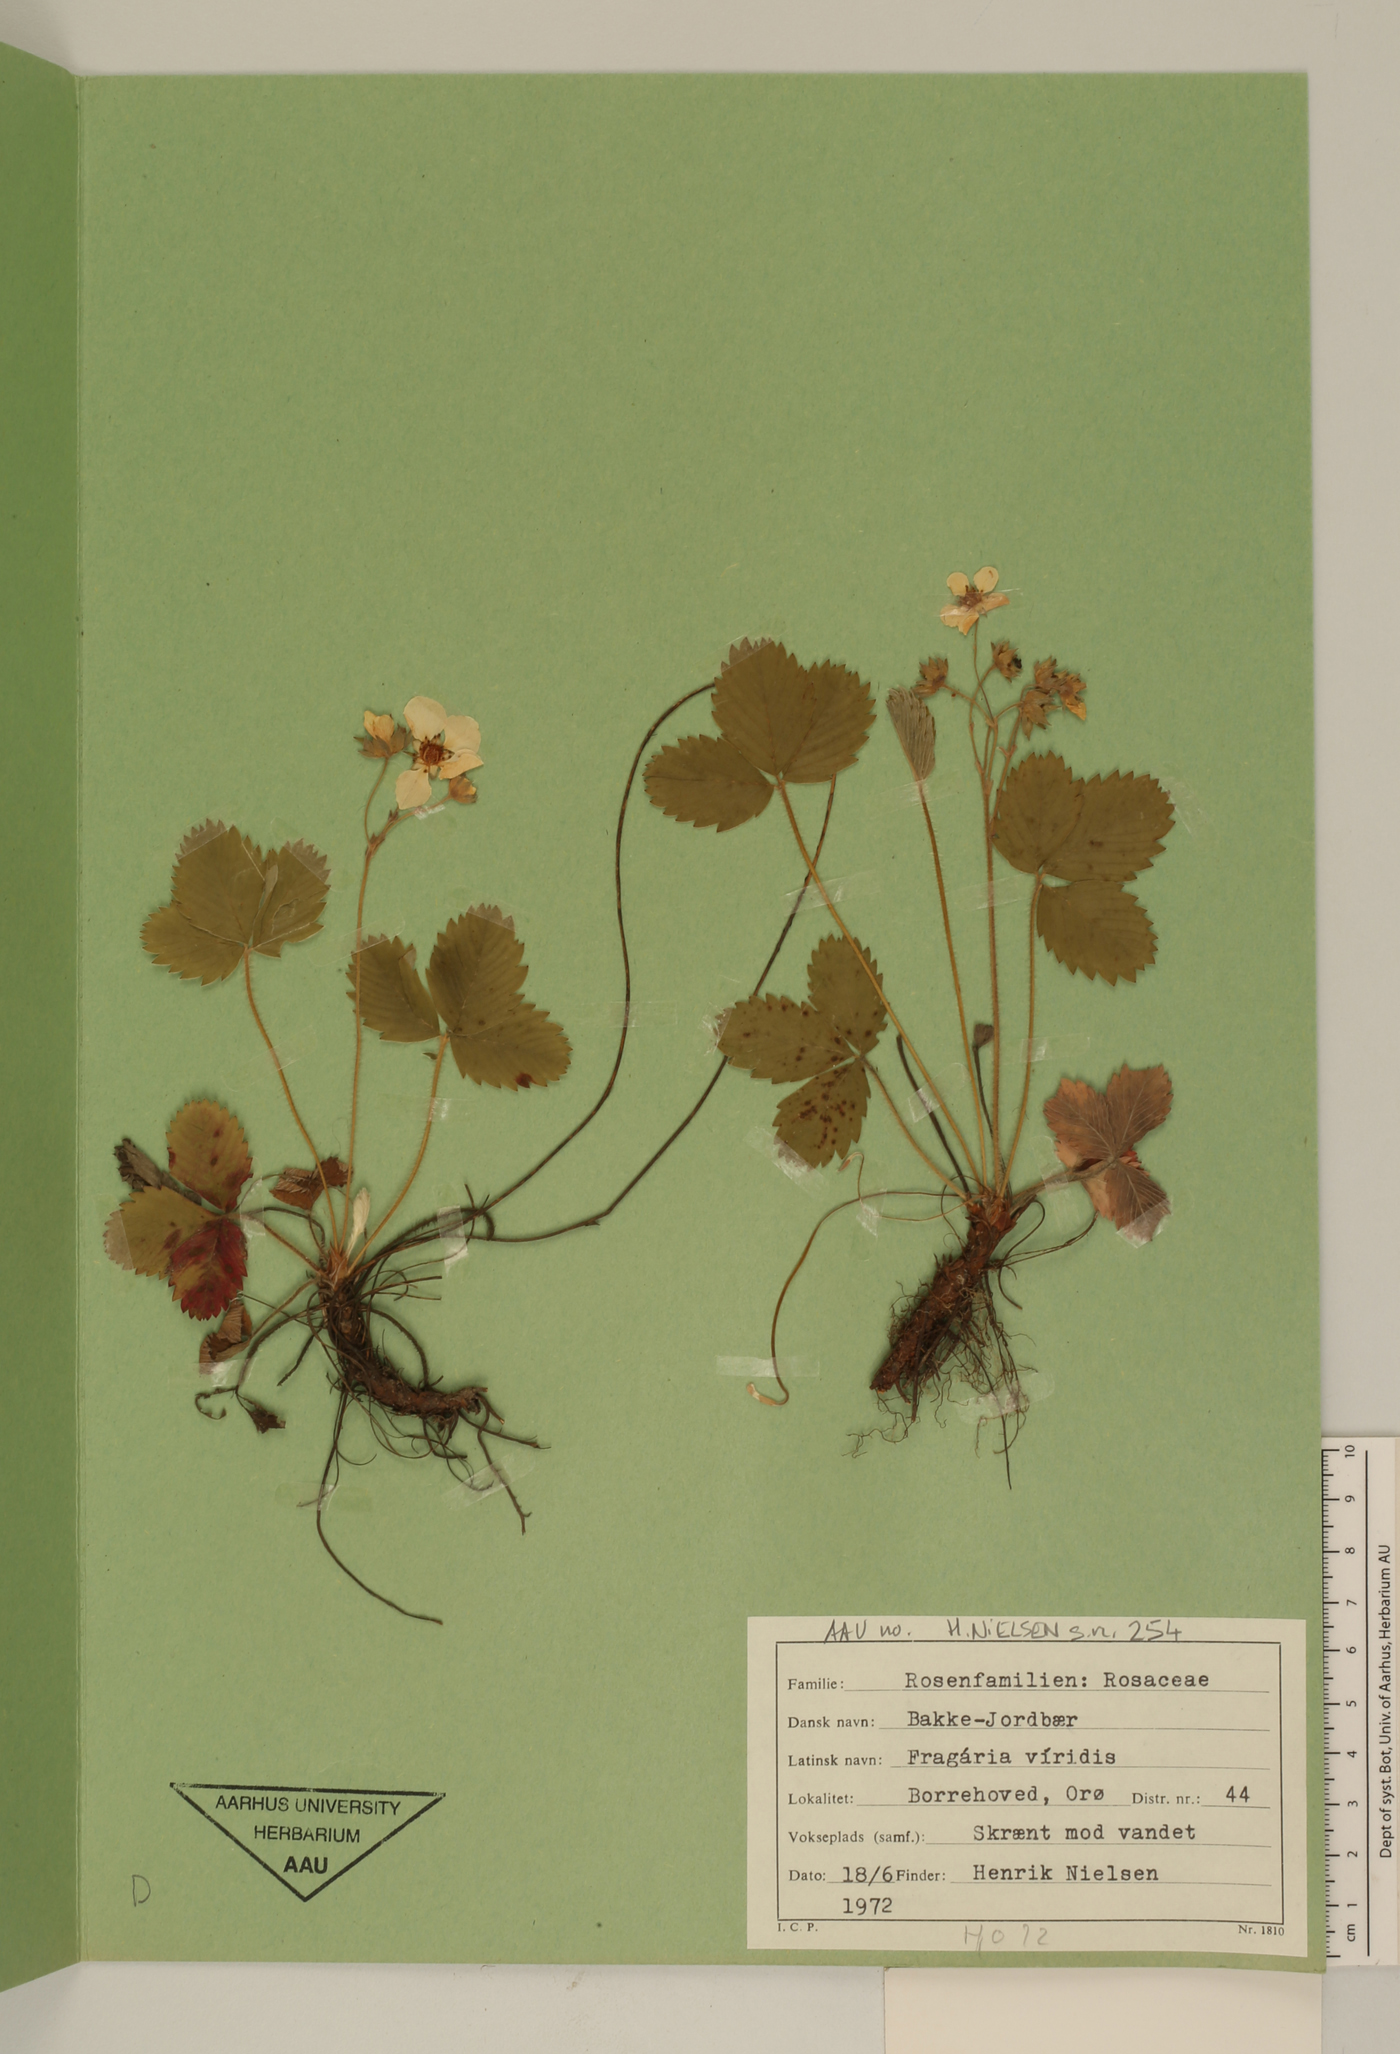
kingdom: Plantae
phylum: Tracheophyta
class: Magnoliopsida
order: Rosales
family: Rosaceae
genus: Fragaria
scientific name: Fragaria viridis
